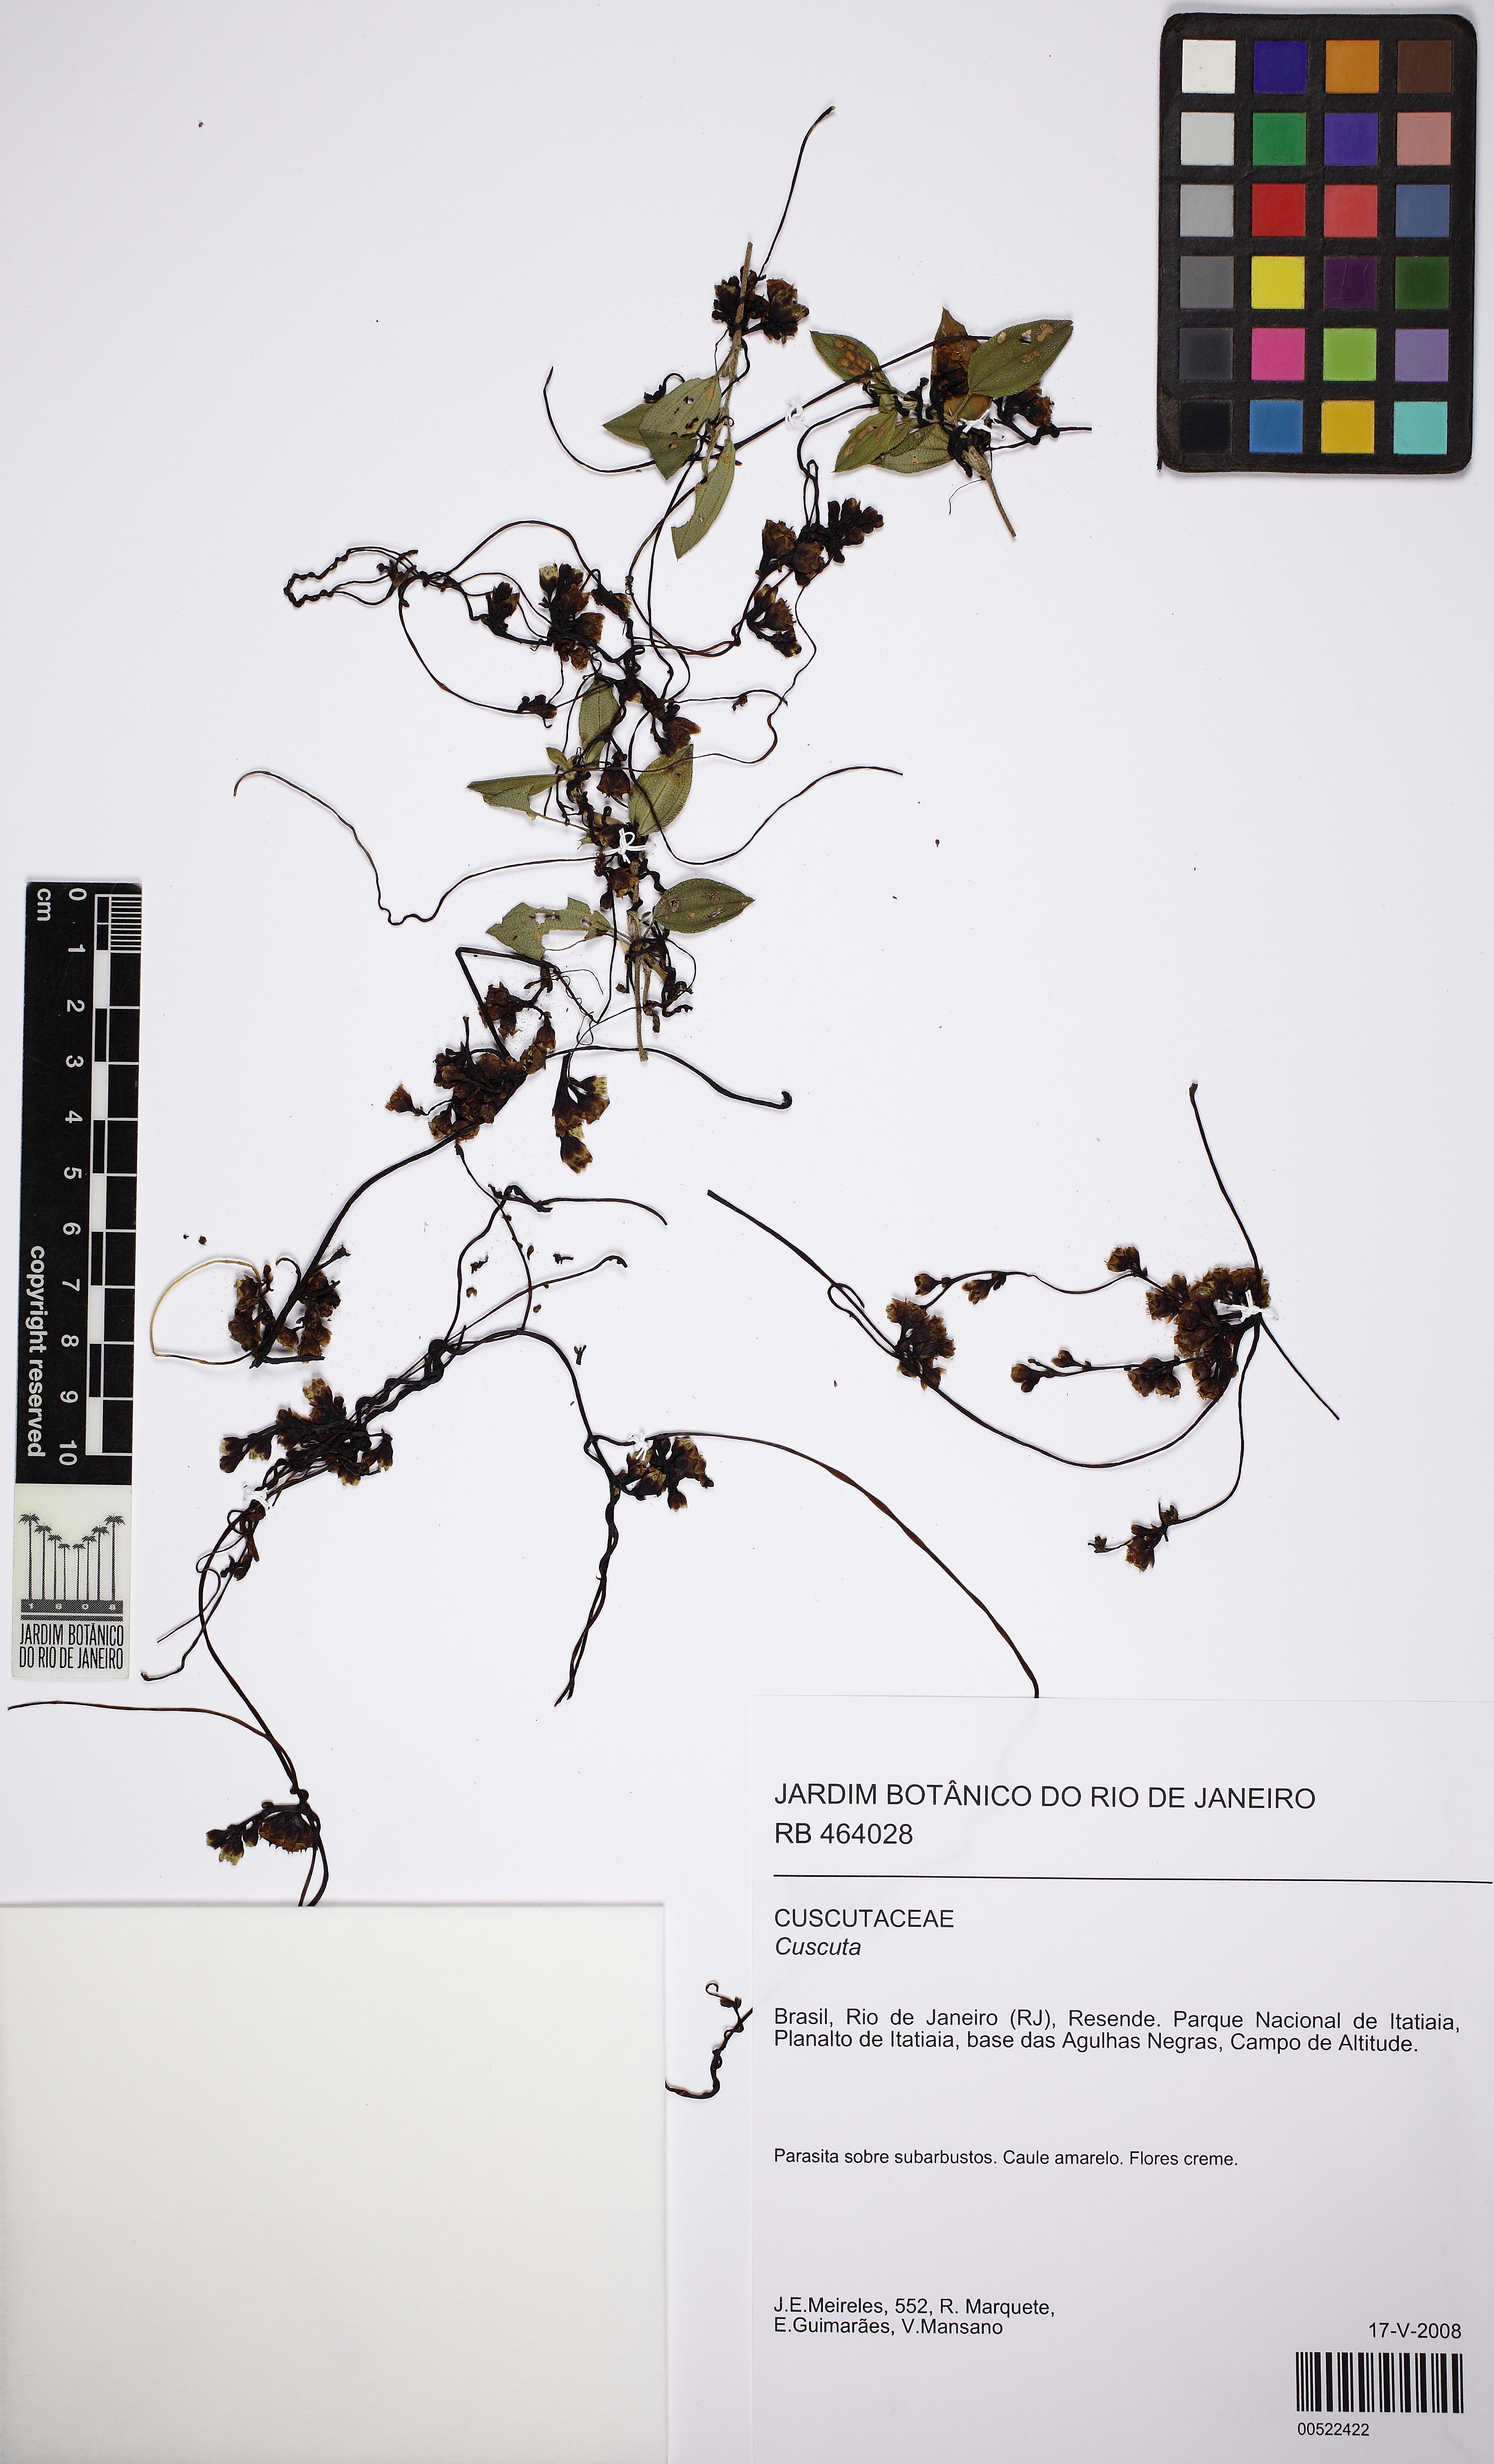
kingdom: Plantae
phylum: Tracheophyta
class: Magnoliopsida
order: Solanales
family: Convolvulaceae
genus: Cuscuta
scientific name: Cuscuta
